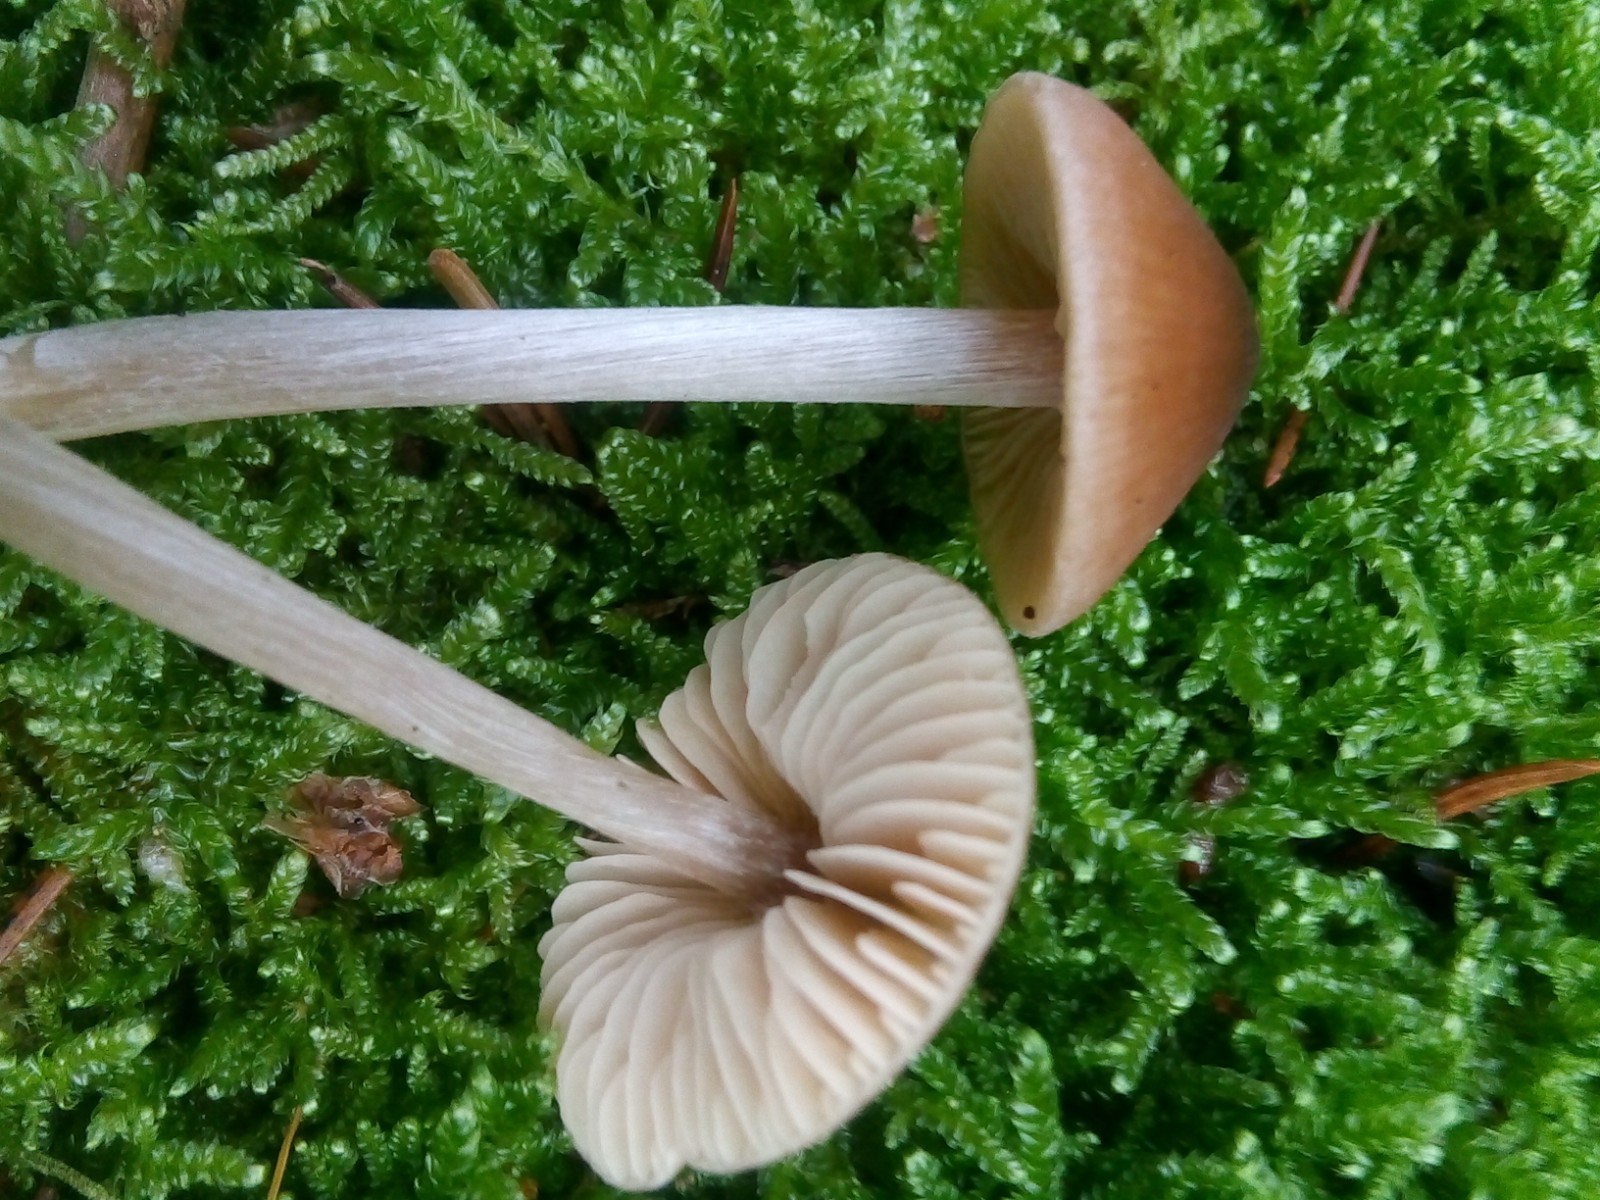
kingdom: Fungi
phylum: Basidiomycota
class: Agaricomycetes
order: Agaricales
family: Entolomataceae
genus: Entoloma
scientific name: Entoloma cetratum
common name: voks-rødblad
